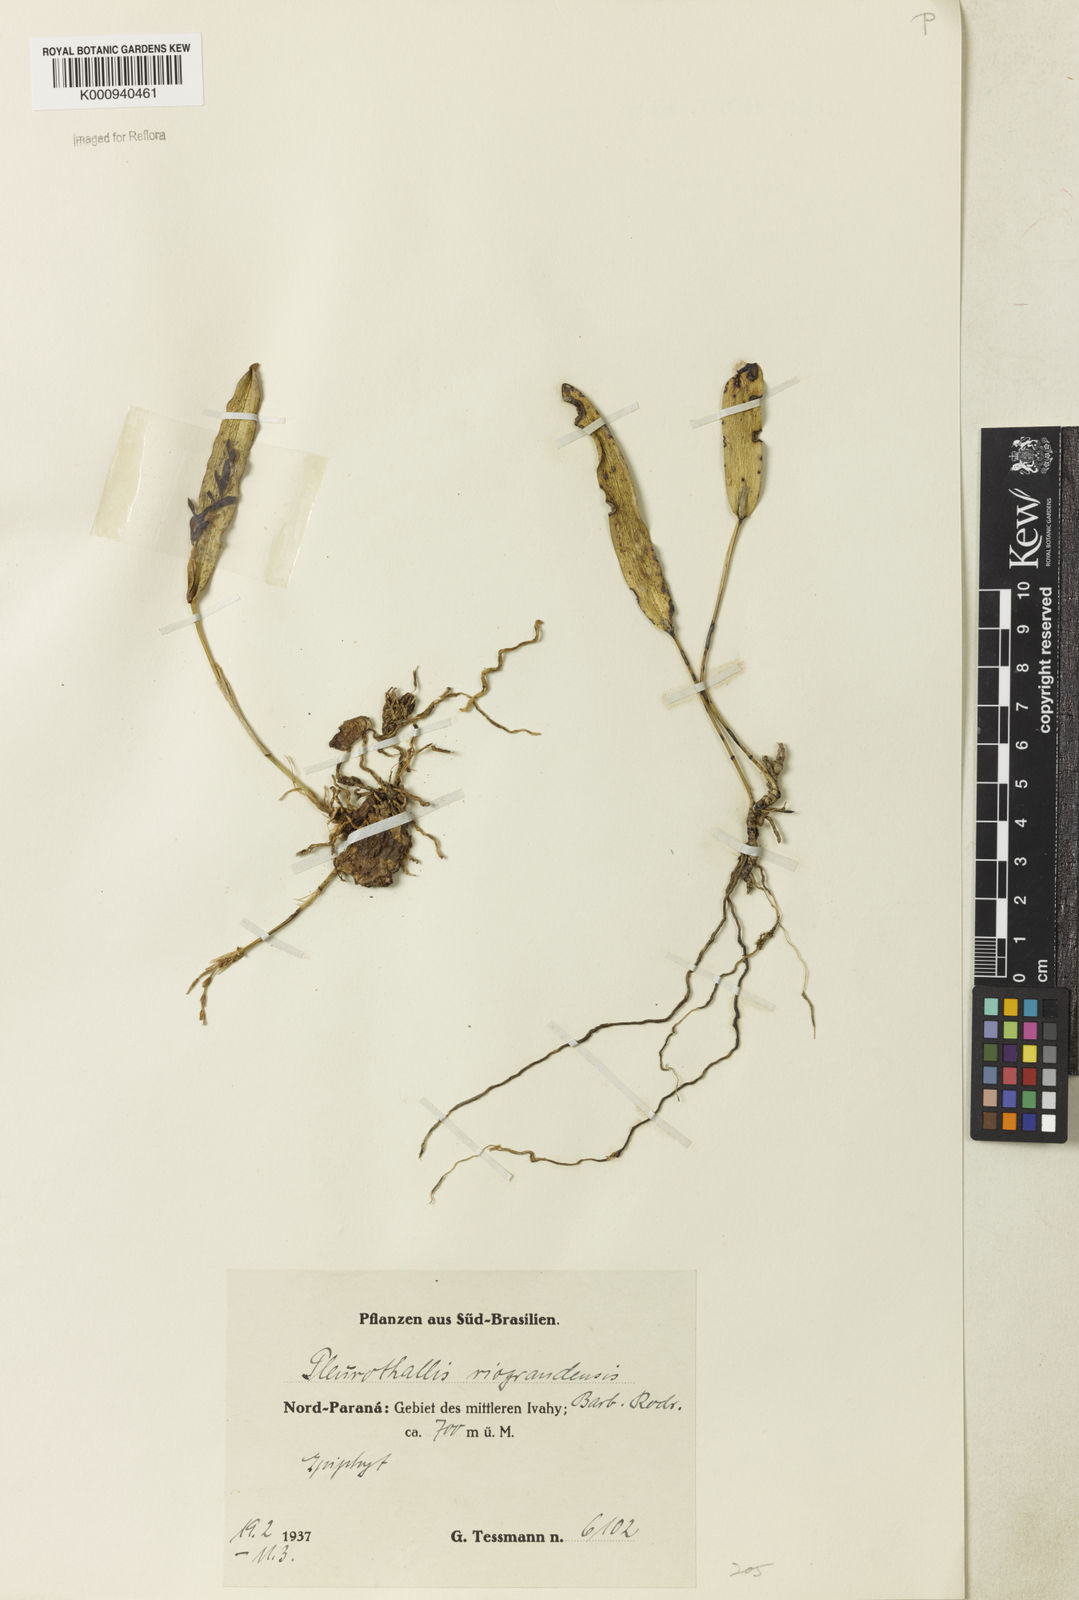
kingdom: Plantae
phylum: Tracheophyta
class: Liliopsida
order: Asparagales
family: Orchidaceae
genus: Acianthera
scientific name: Acianthera
